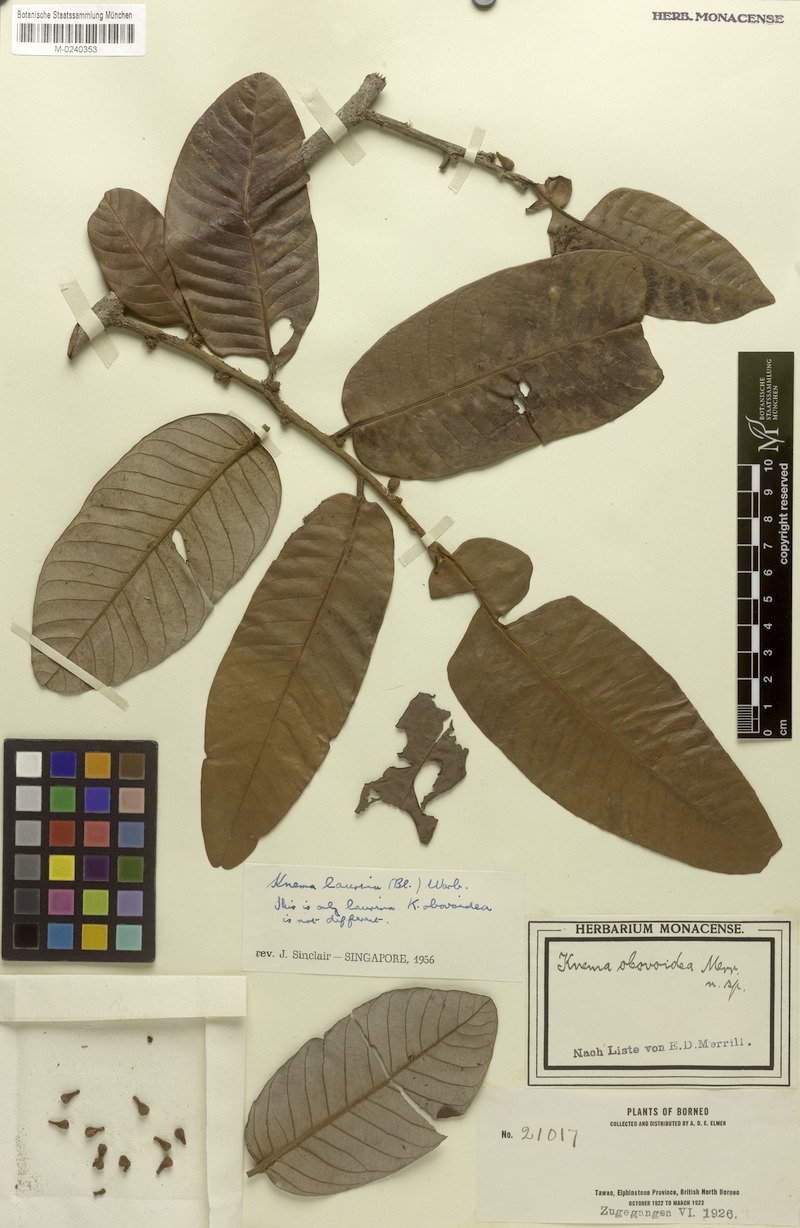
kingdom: Plantae
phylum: Tracheophyta
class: Magnoliopsida
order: Magnoliales
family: Myristicaceae
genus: Knema
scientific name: Knema laurina
